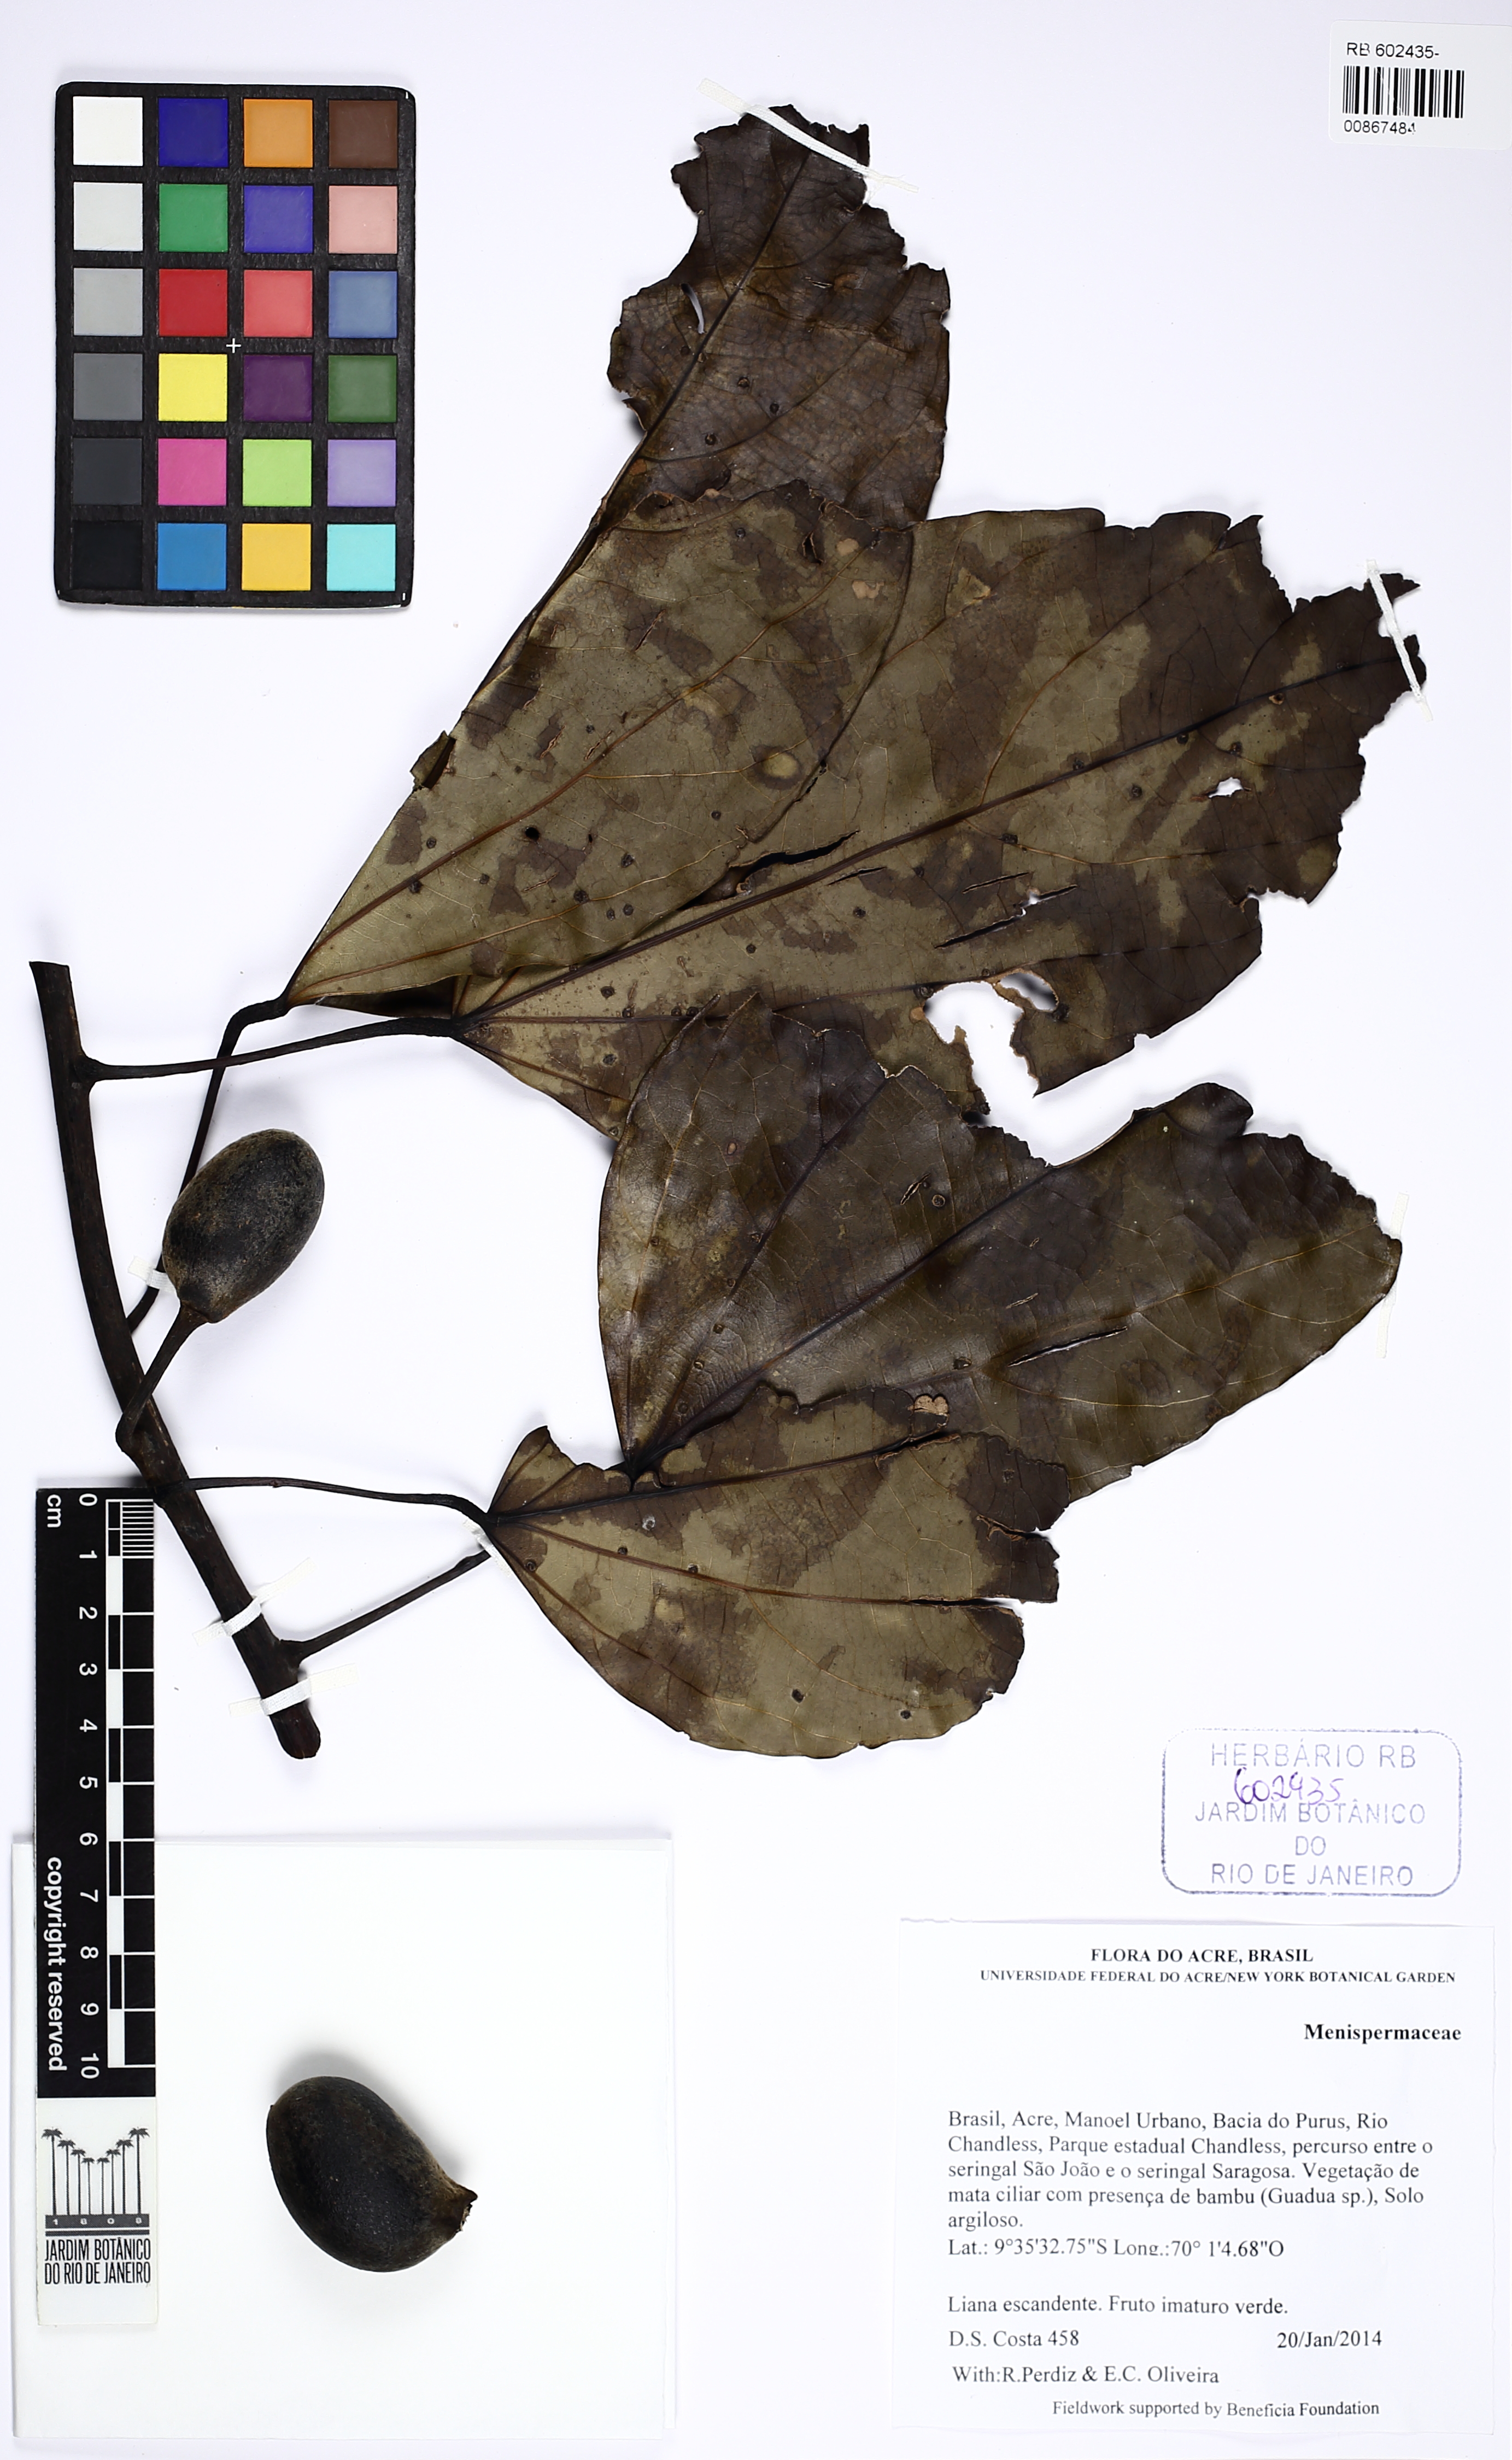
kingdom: Plantae
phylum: Tracheophyta
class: Magnoliopsida
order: Ranunculales
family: Menispermaceae
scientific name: Menispermaceae
